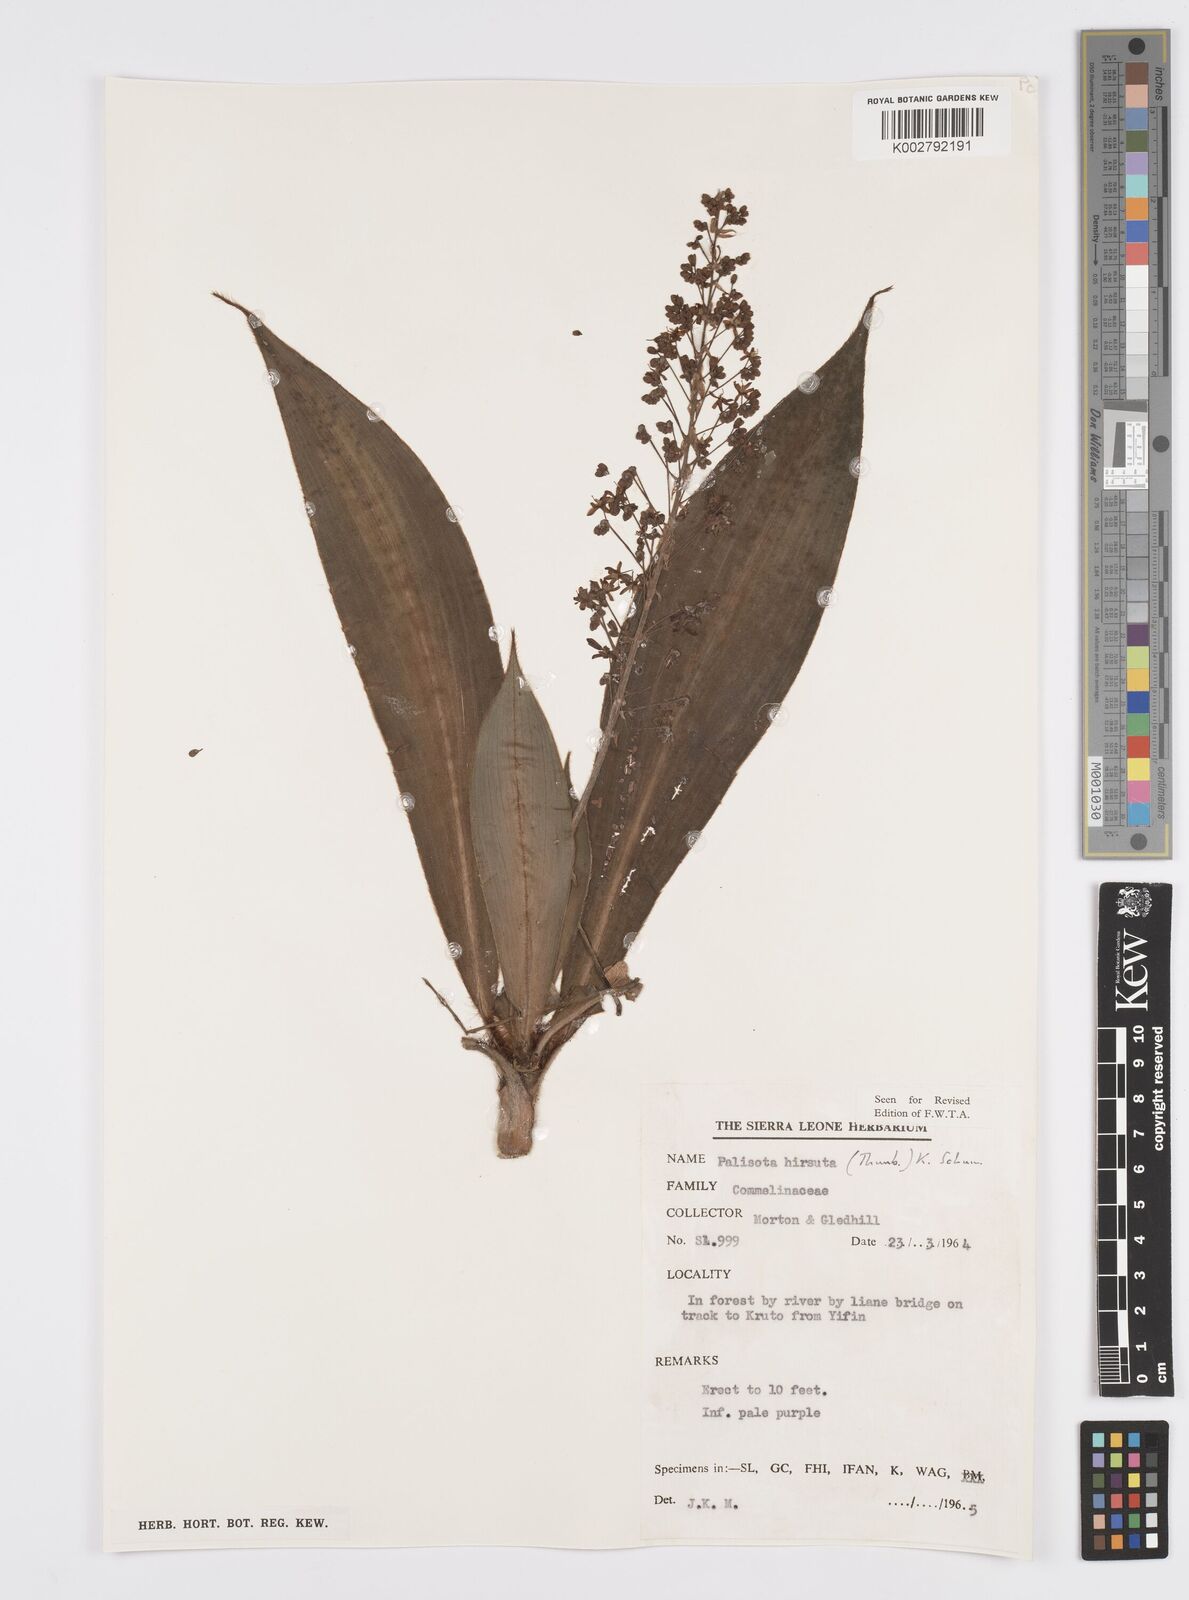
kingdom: Plantae
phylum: Tracheophyta
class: Liliopsida
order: Commelinales
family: Commelinaceae
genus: Palisota
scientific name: Palisota hirsuta
